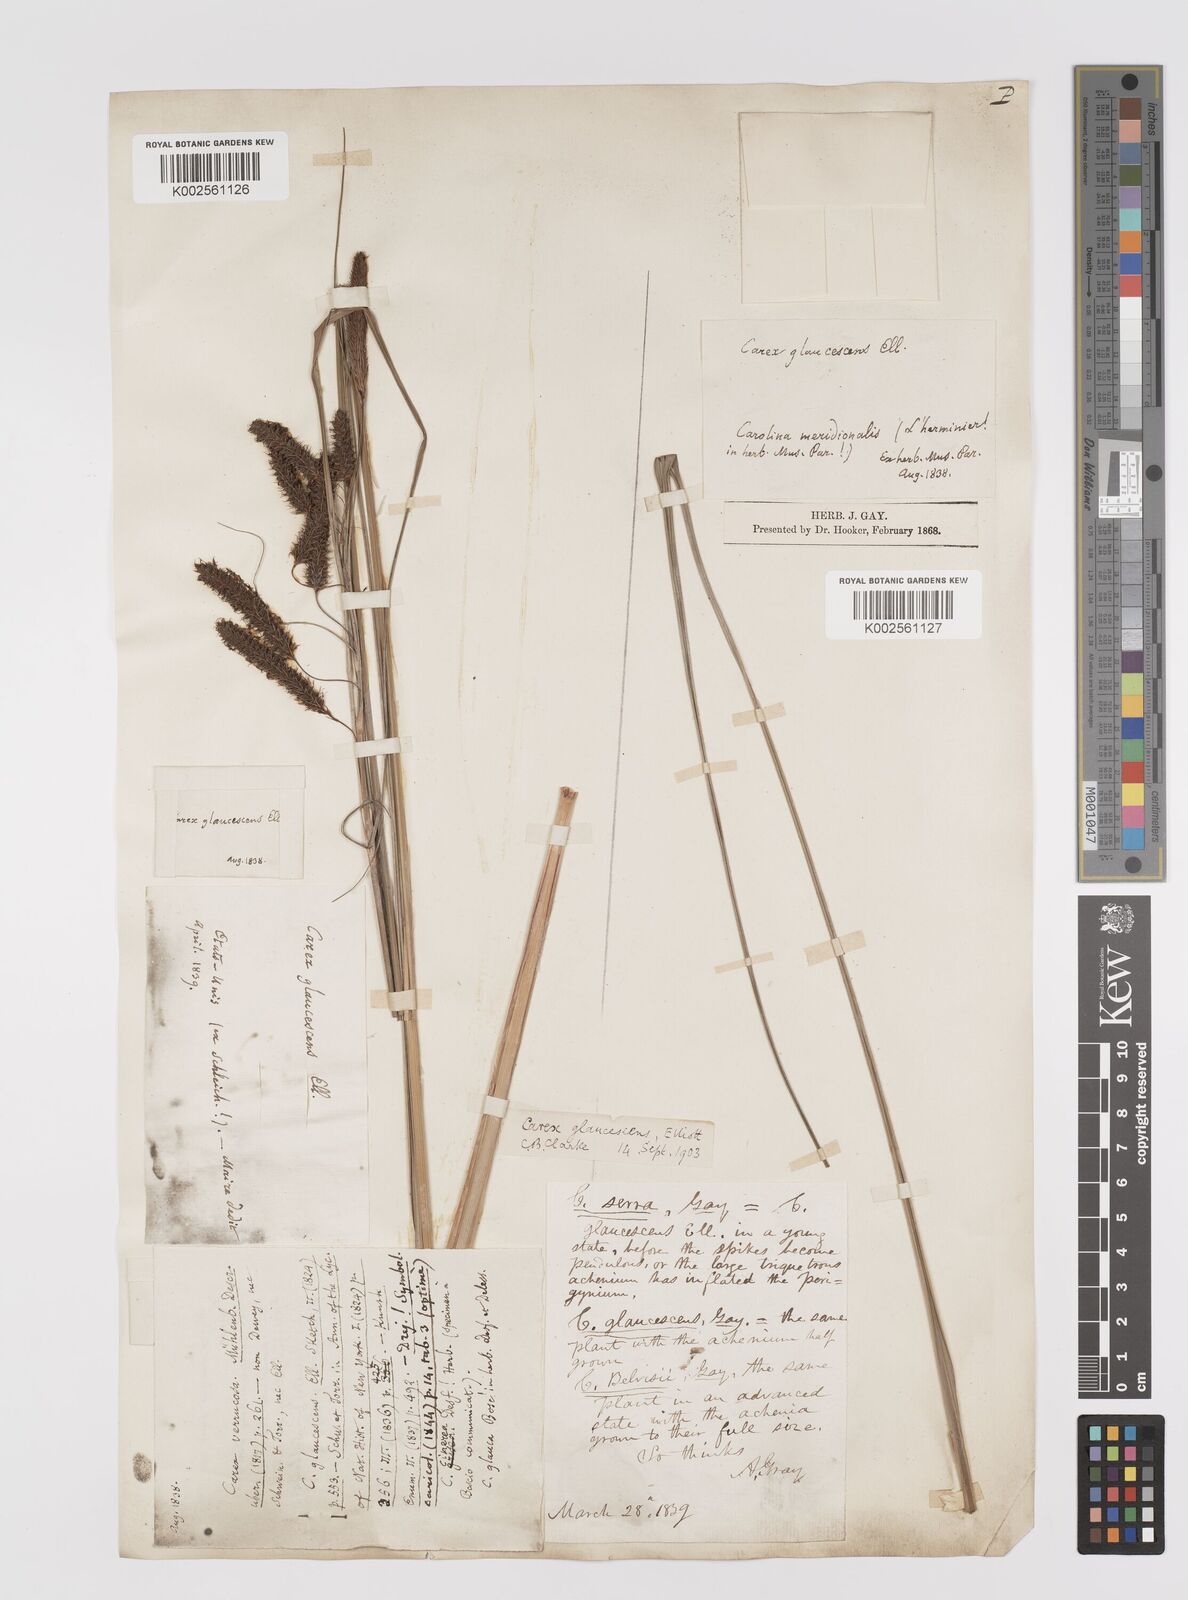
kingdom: Plantae
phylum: Tracheophyta
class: Liliopsida
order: Poales
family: Cyperaceae
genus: Carex
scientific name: Carex glaucescens
